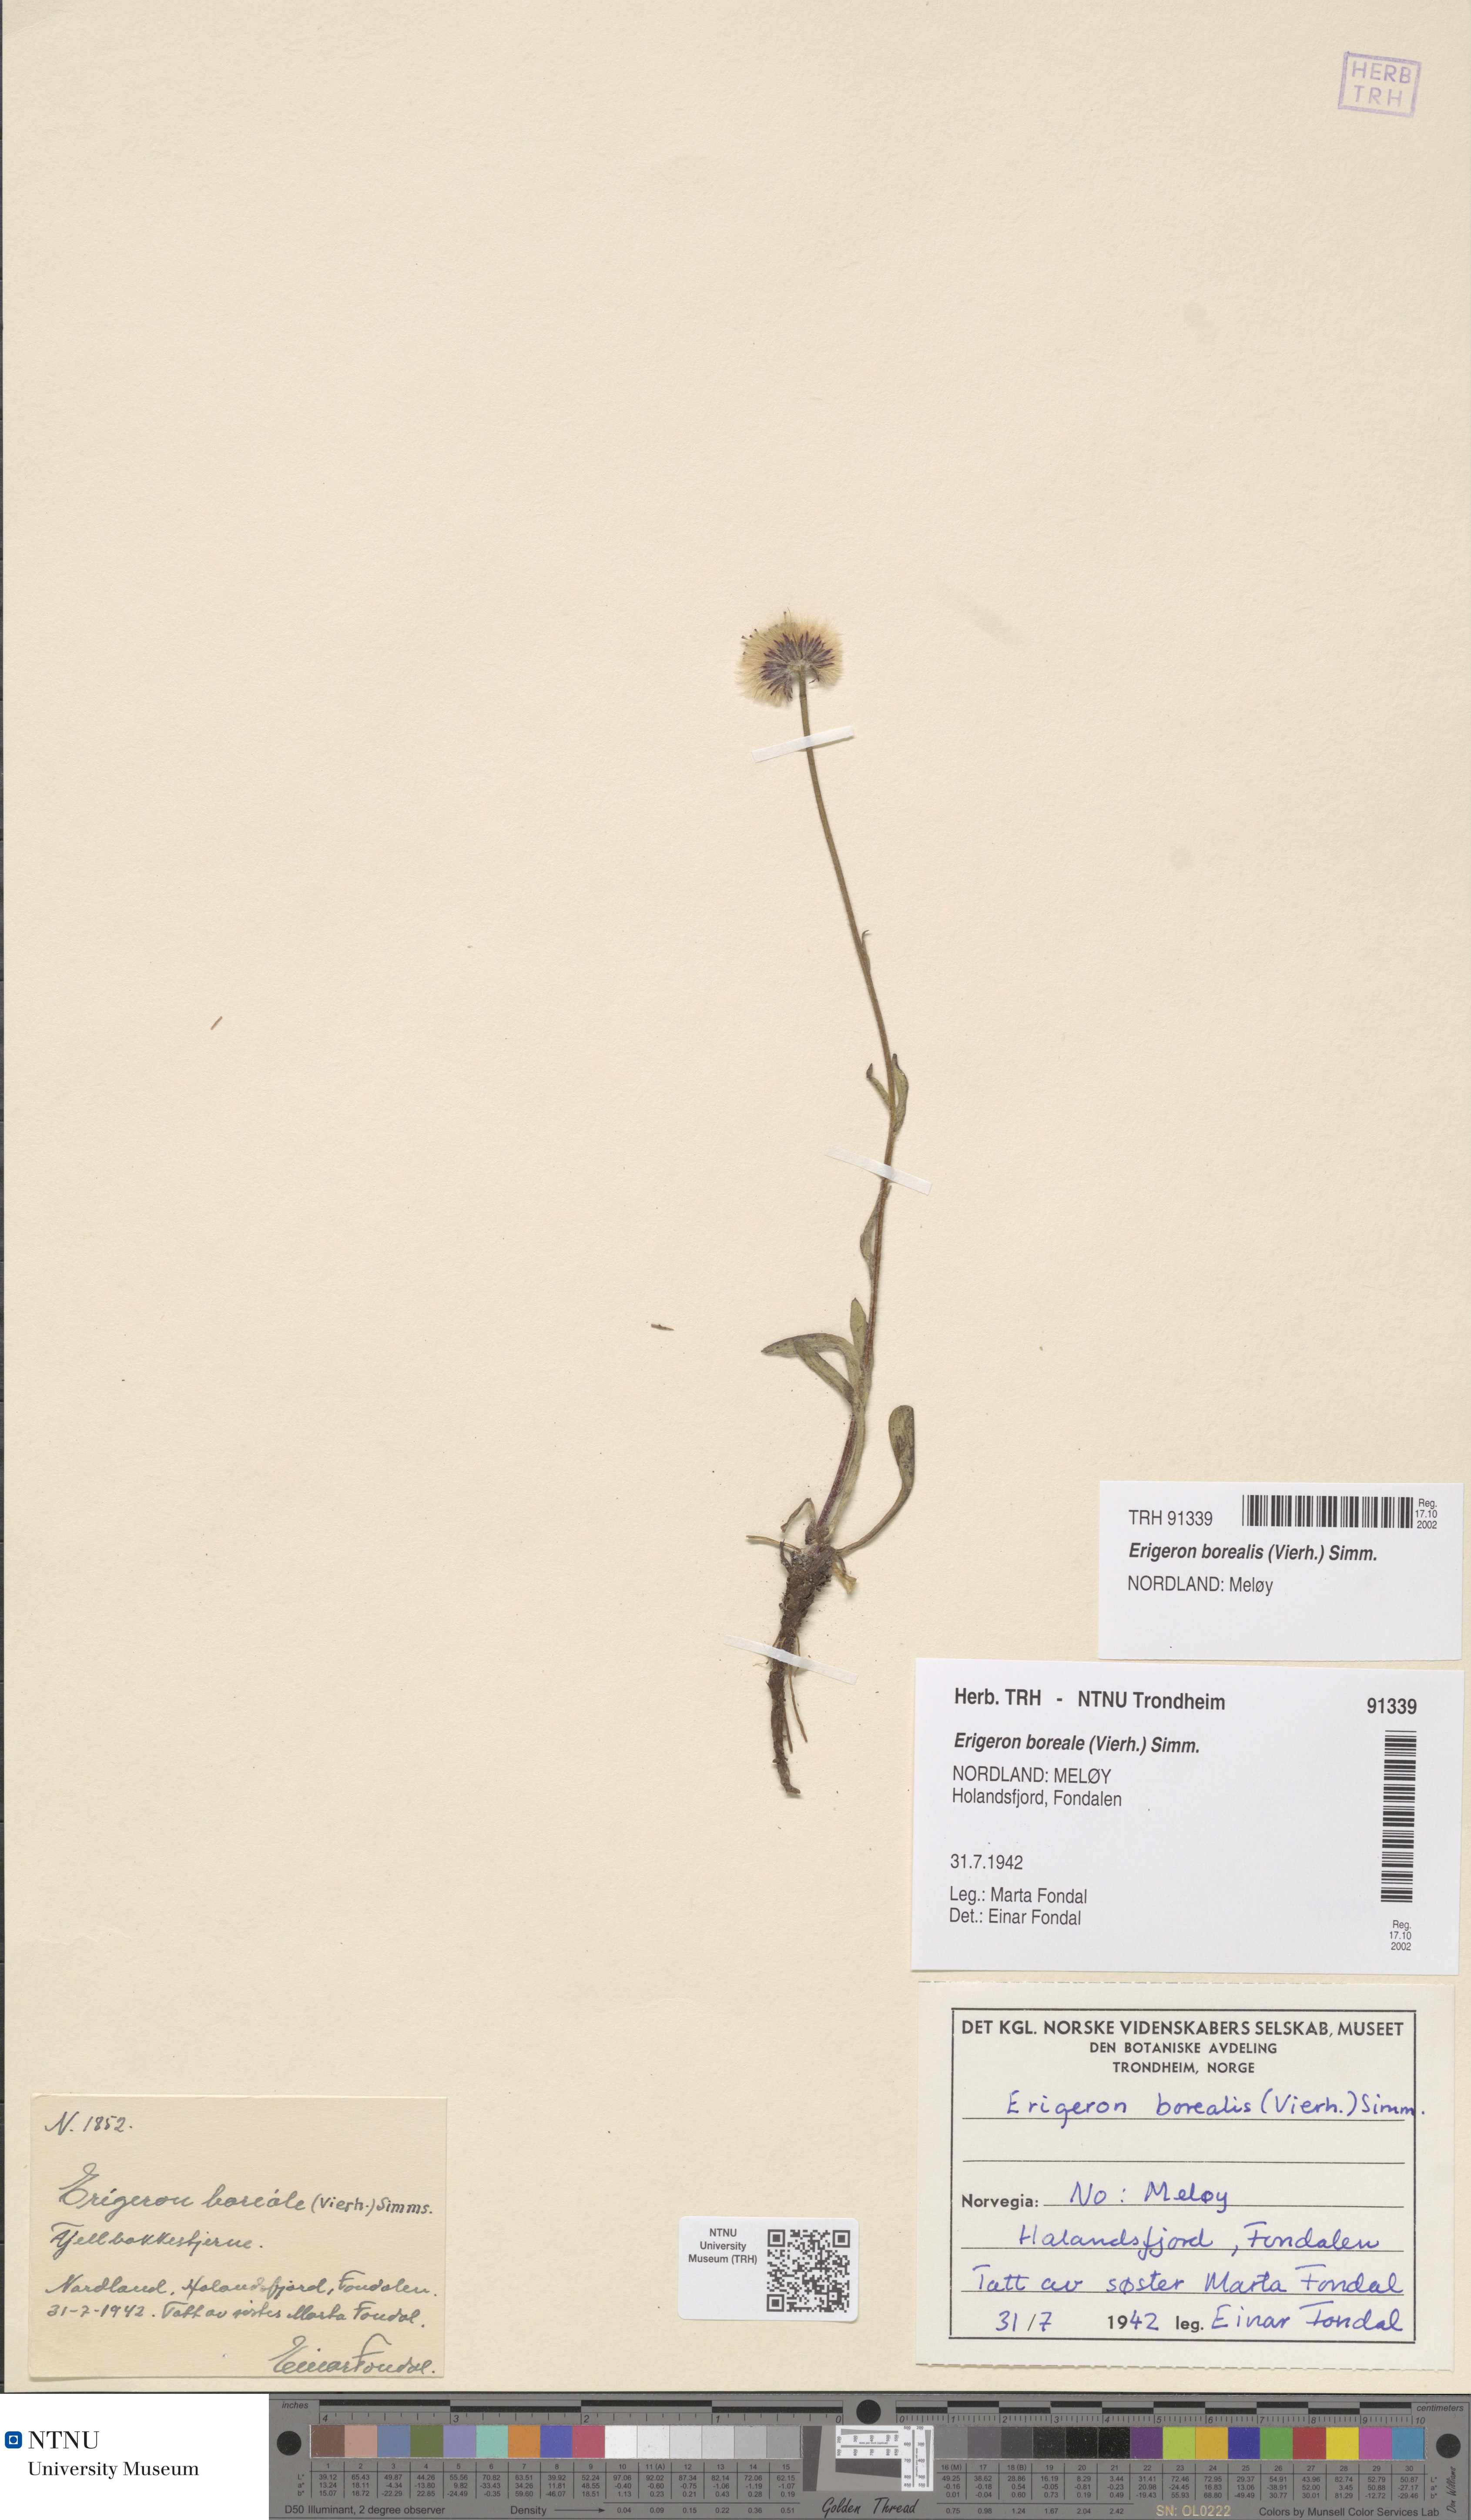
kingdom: Plantae
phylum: Tracheophyta
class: Magnoliopsida
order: Asterales
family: Asteraceae
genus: Erigeron
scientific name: Erigeron borealis
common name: Alpine fleabane
